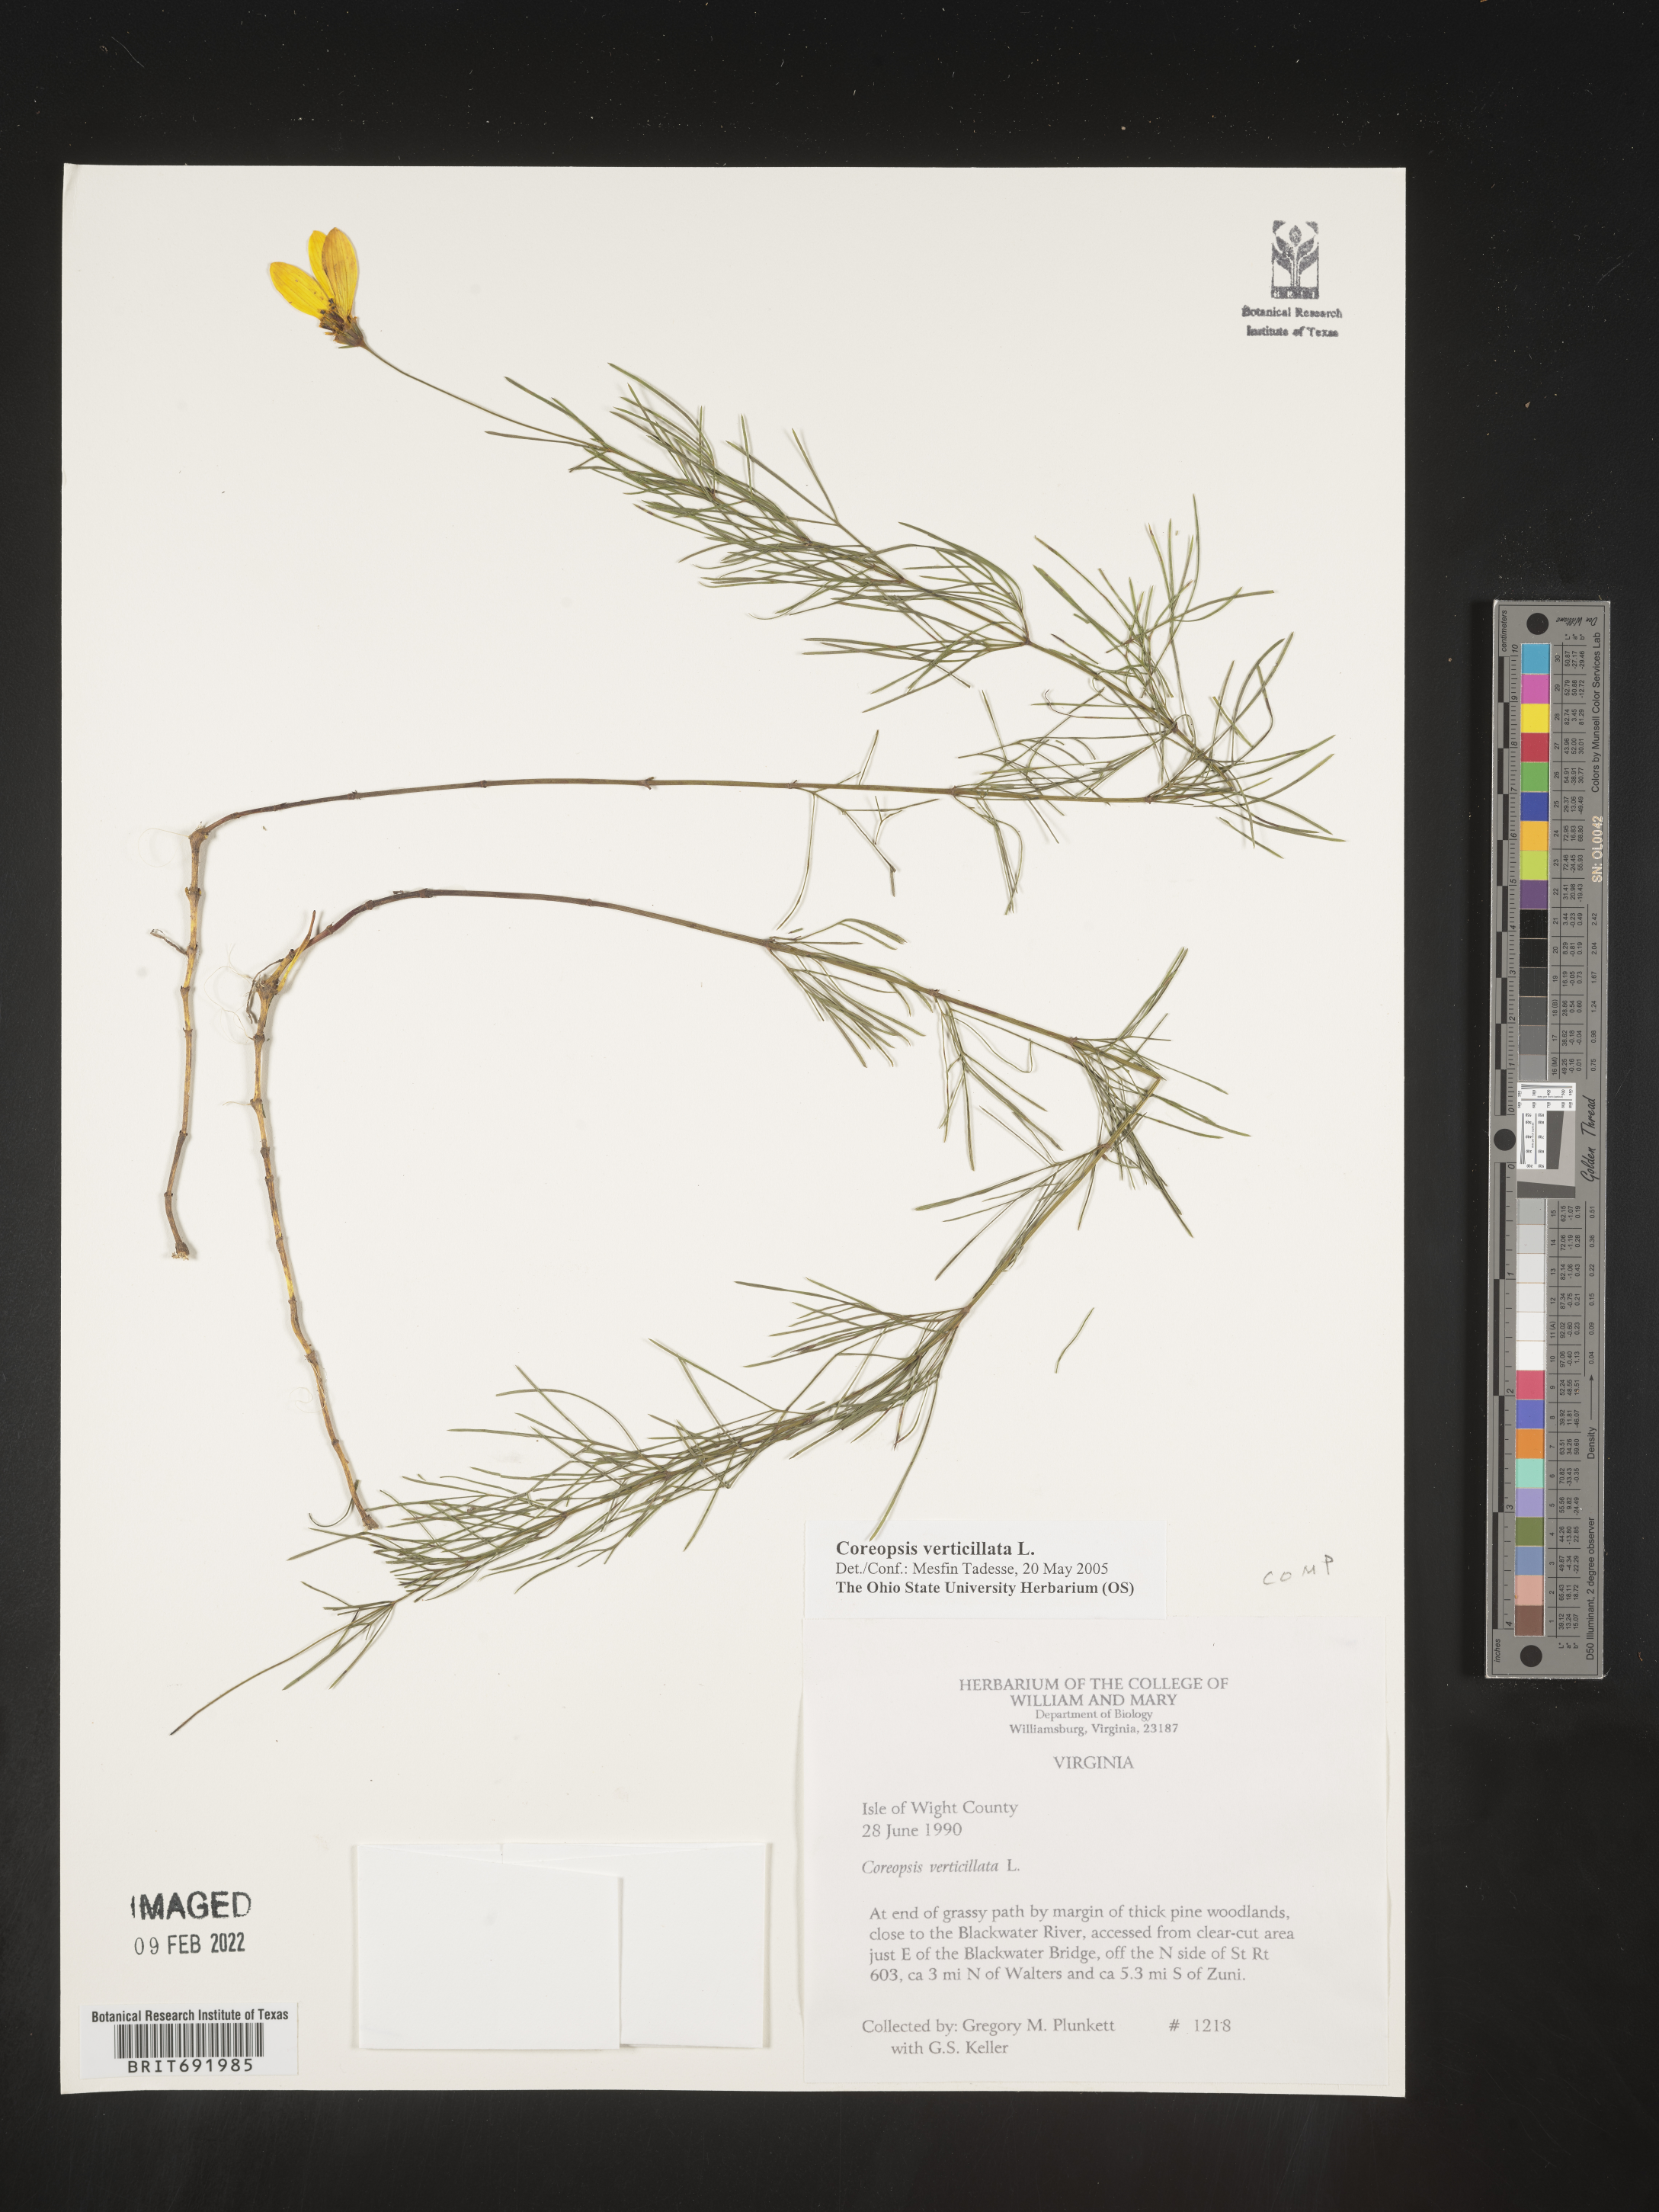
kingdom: Plantae
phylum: Tracheophyta
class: Magnoliopsida
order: Asterales
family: Asteraceae
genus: Coreopsis
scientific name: Coreopsis verticillata
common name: Whorled tickseed
